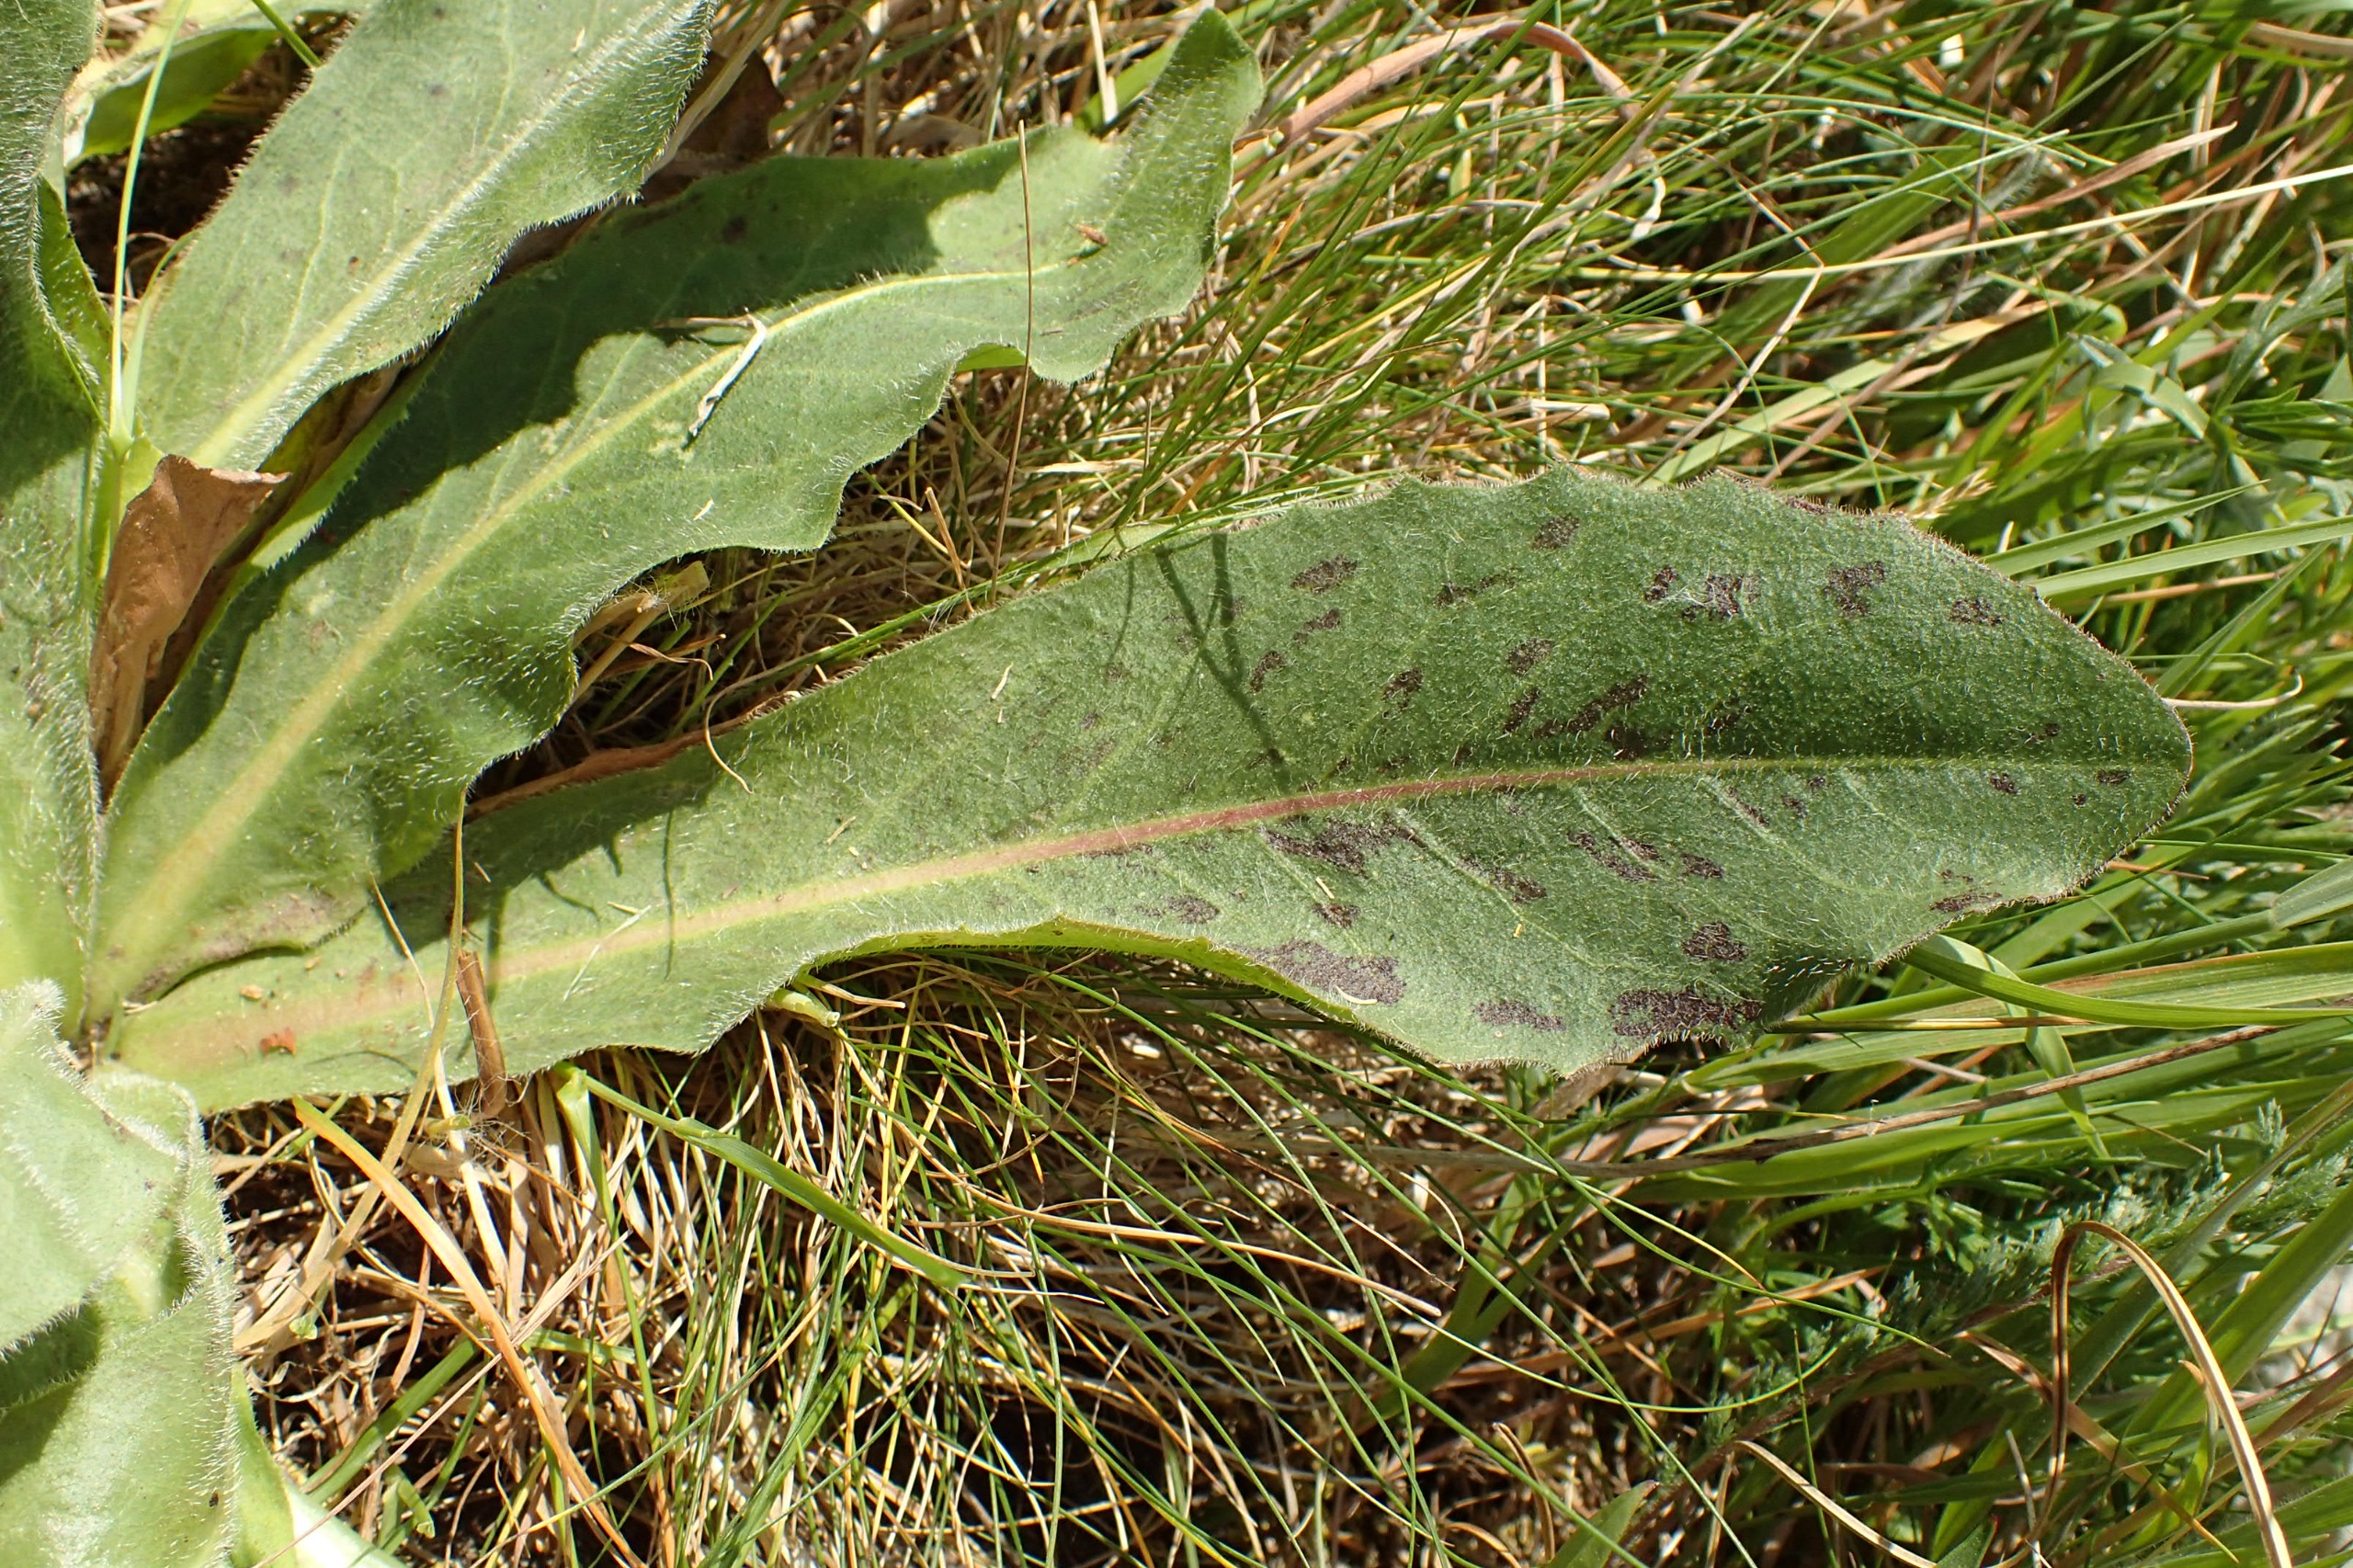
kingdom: Plantae
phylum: Tracheophyta
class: Magnoliopsida
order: Asterales
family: Asteraceae
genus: Trommsdorffia
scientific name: Trommsdorffia maculata
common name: Plettet kongepen
